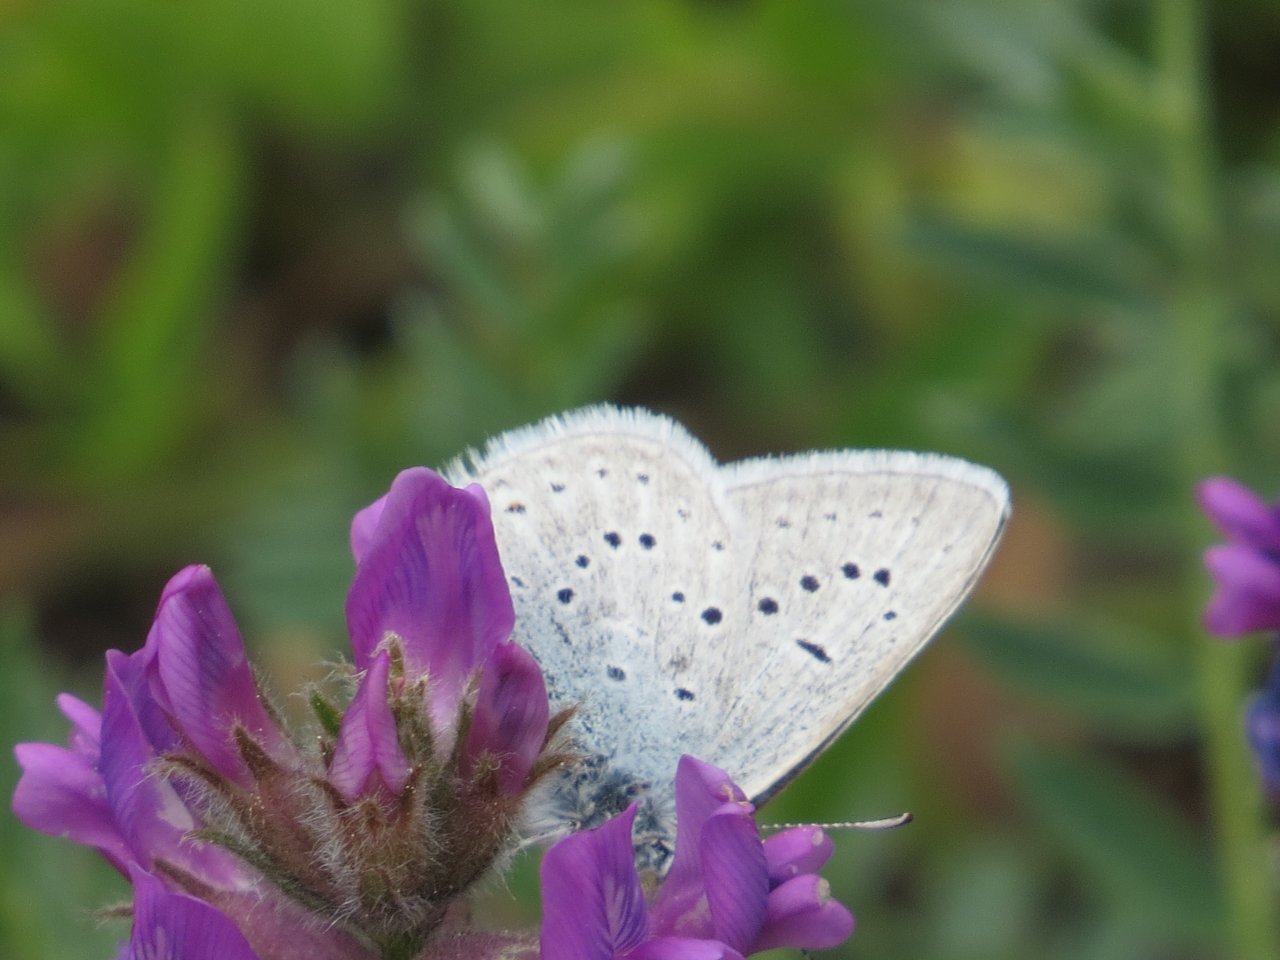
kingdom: Animalia
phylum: Arthropoda
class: Insecta
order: Lepidoptera
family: Lycaenidae
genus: Plebejus
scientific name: Plebejus saepiolus
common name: Greenish Blue
